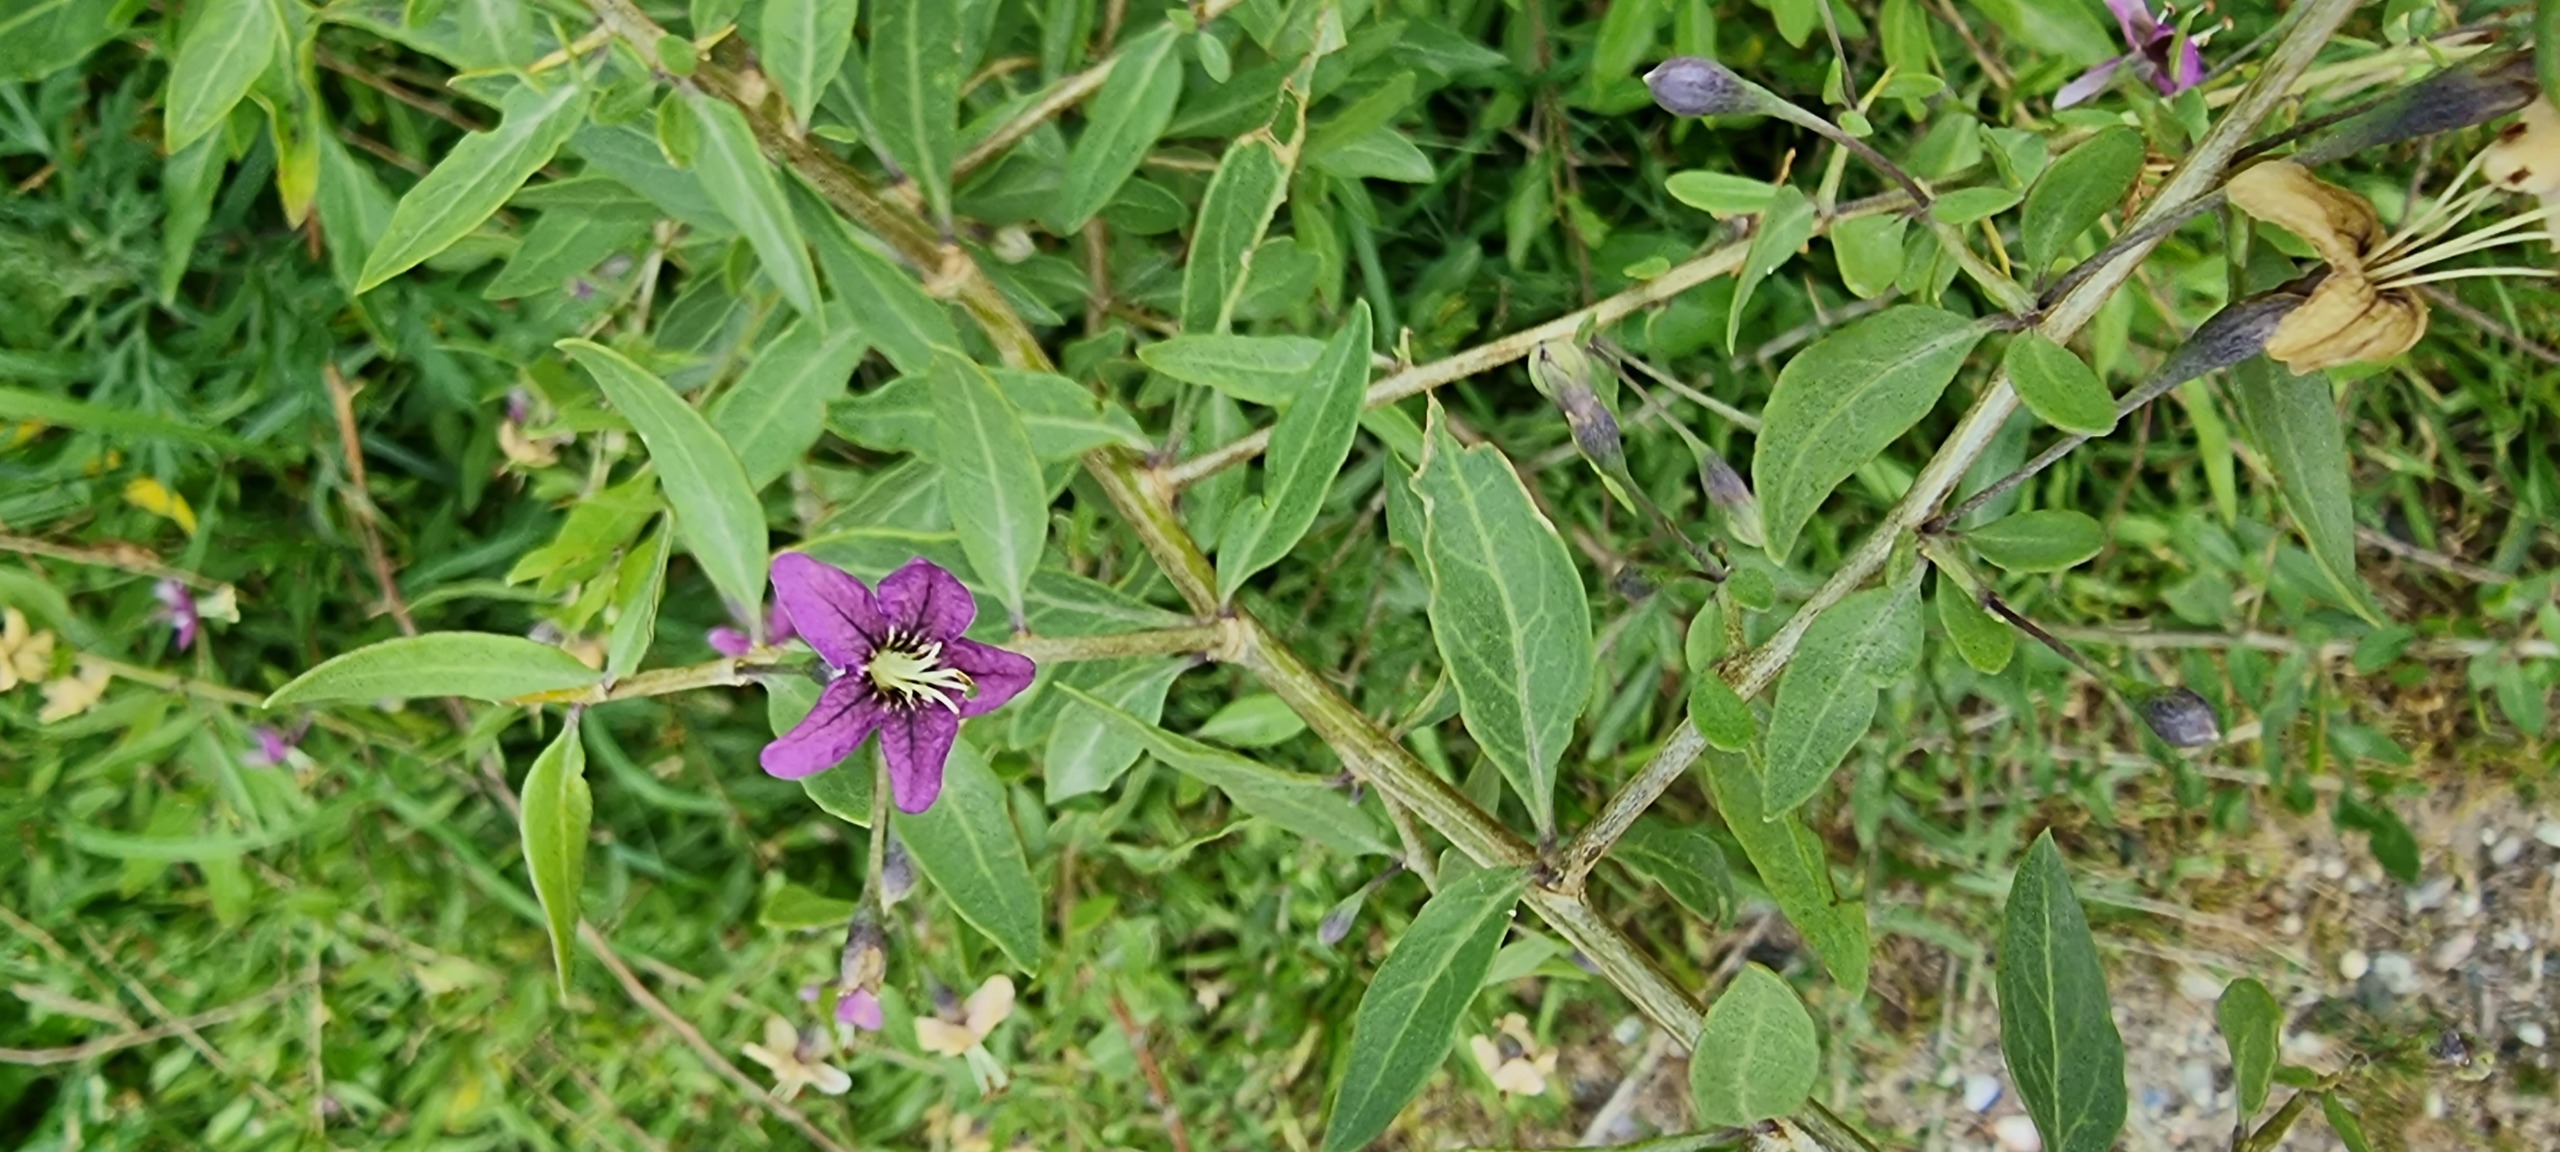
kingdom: Plantae
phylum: Tracheophyta
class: Magnoliopsida
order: Solanales
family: Solanaceae
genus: Lycium
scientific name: Lycium barbarum
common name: Bukketorn
